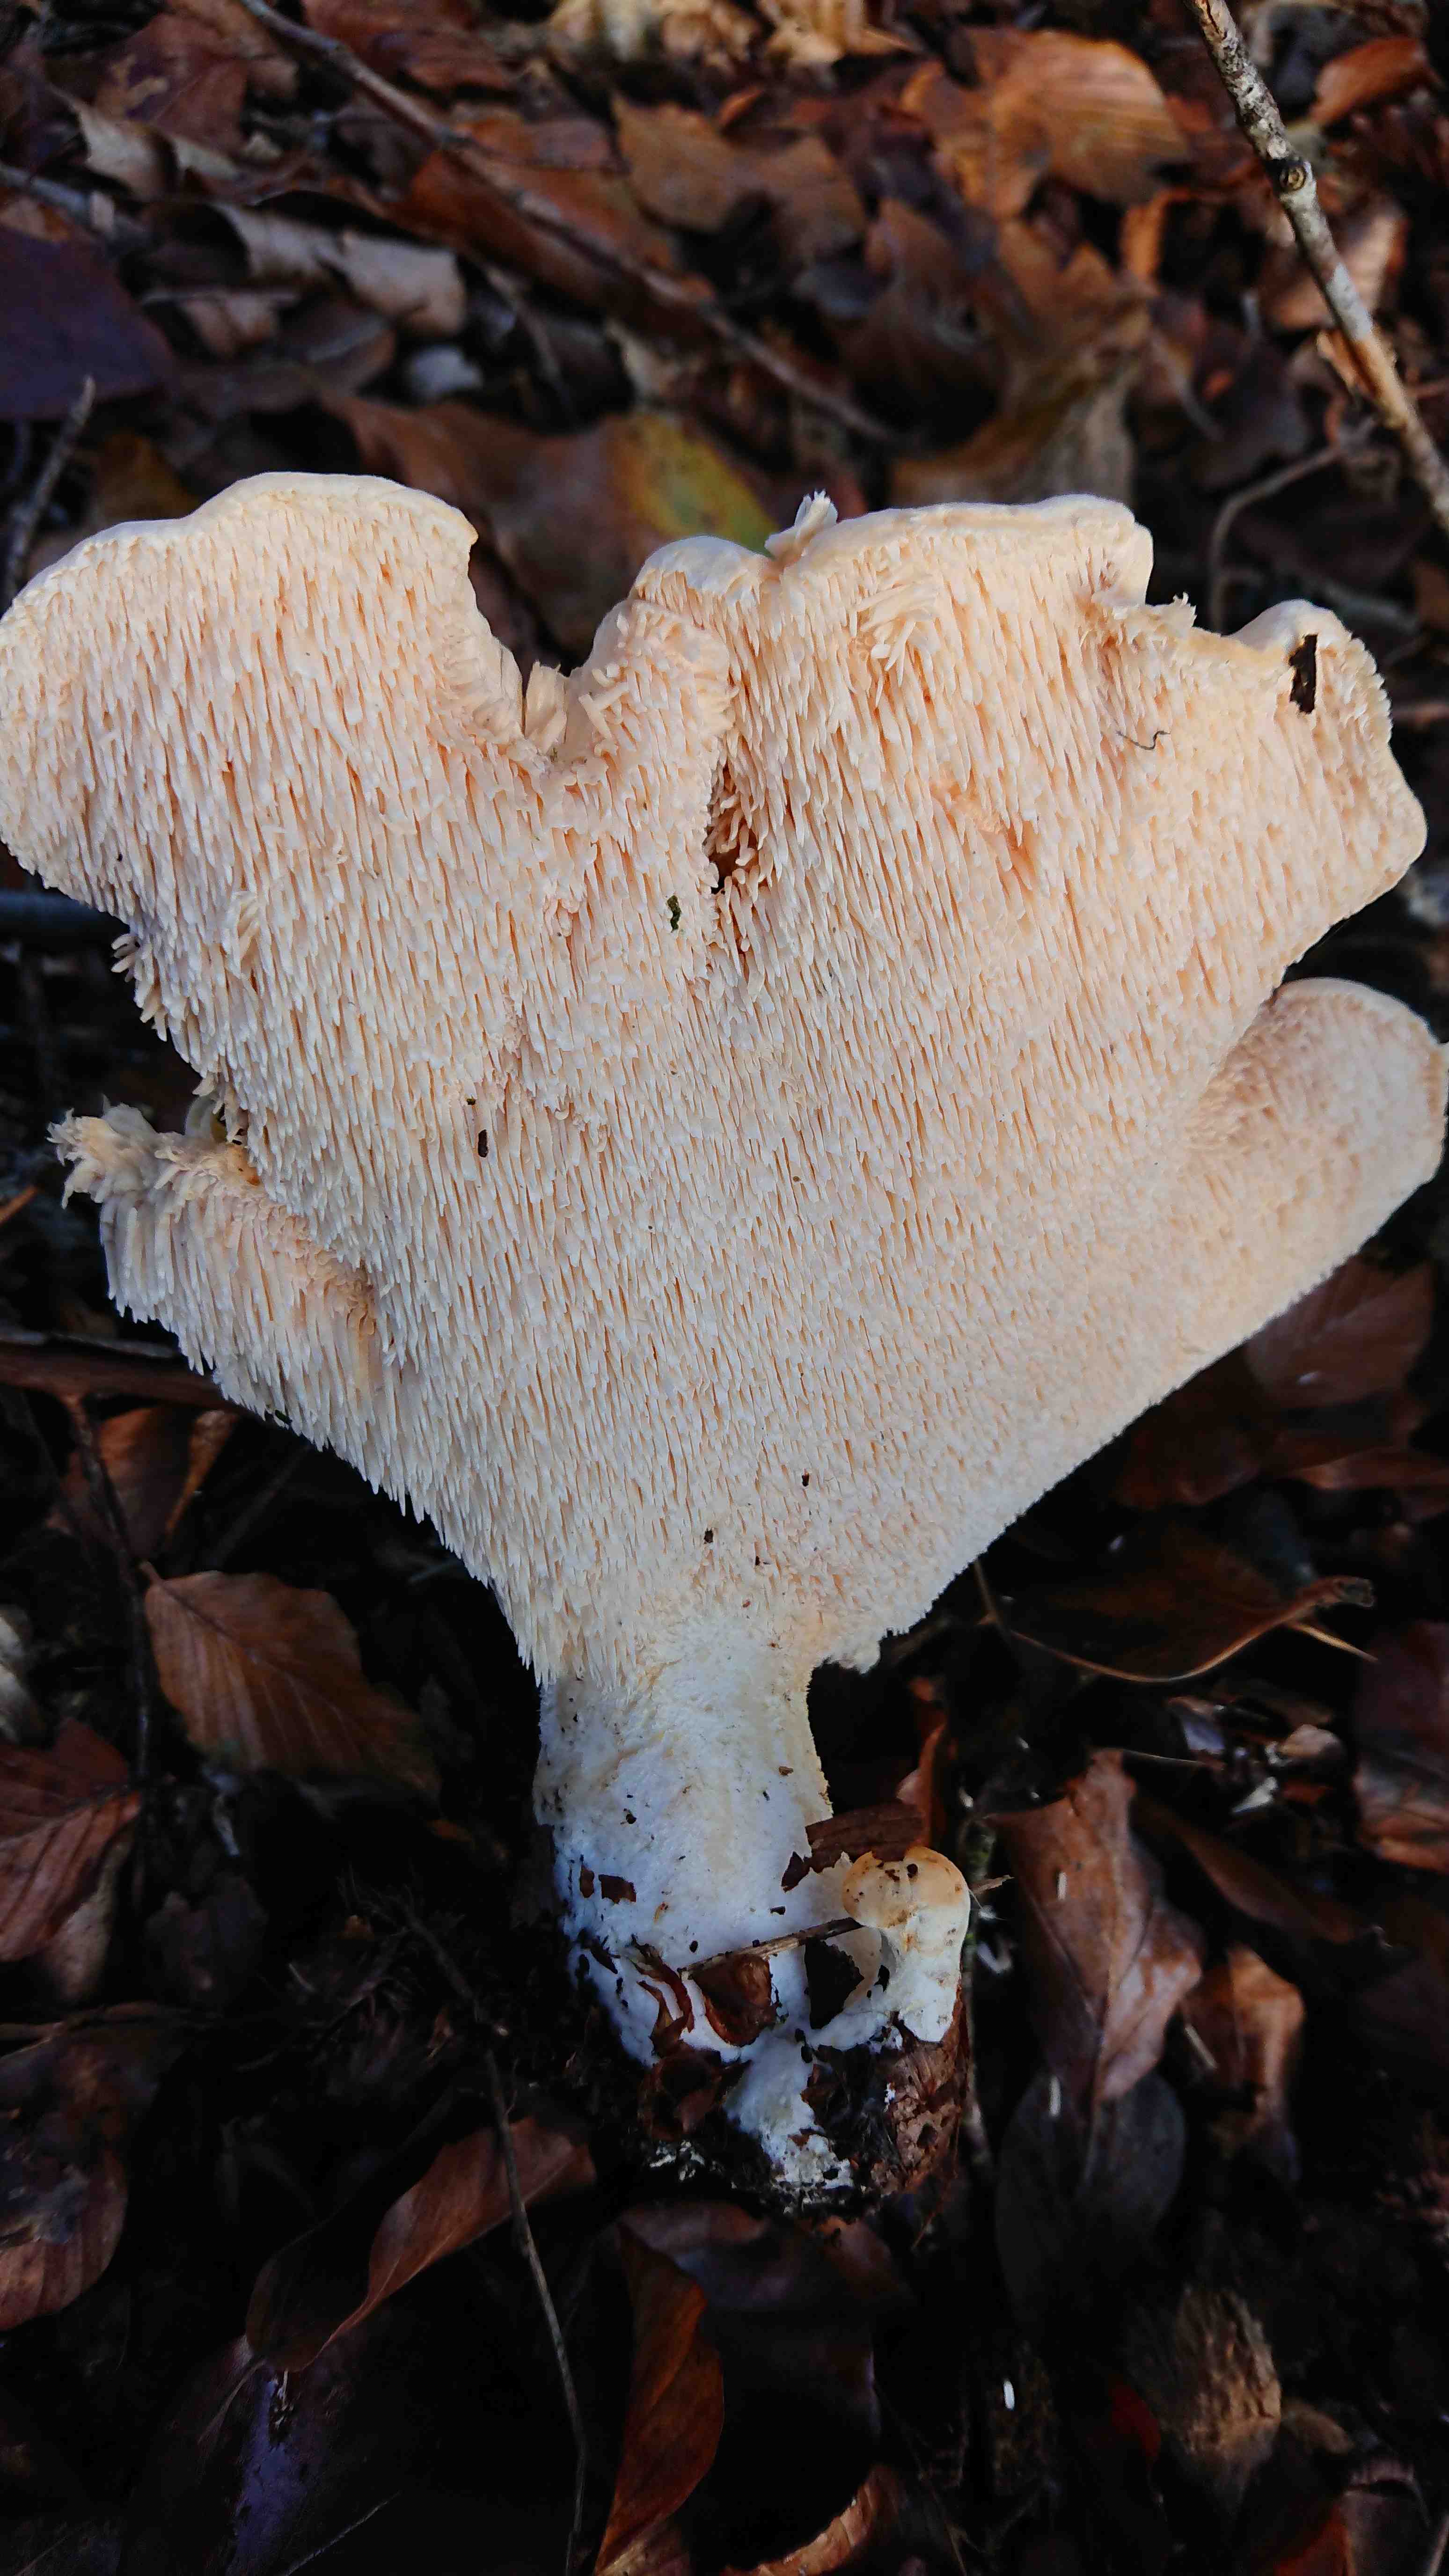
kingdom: Fungi
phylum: Basidiomycota
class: Agaricomycetes
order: Cantharellales
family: Hydnaceae
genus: Hydnum
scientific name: Hydnum
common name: pigsvamp
